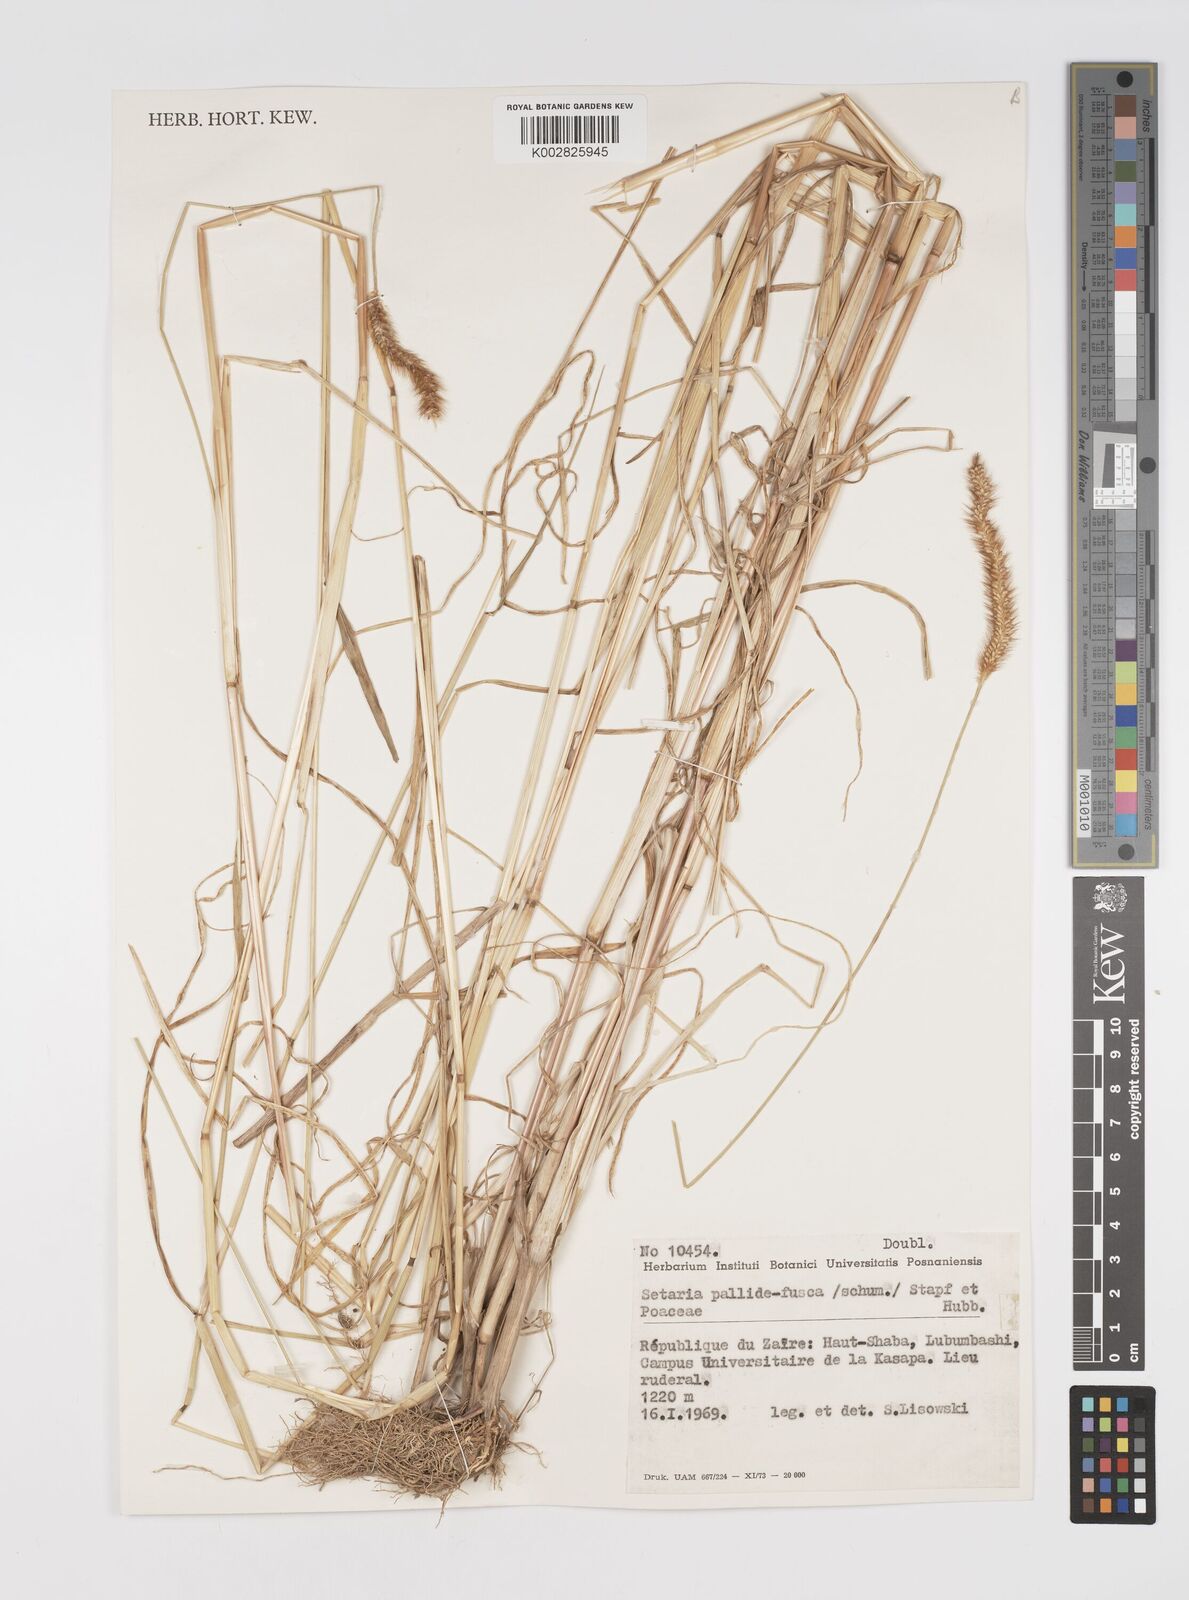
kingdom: Plantae
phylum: Tracheophyta
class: Liliopsida
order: Poales
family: Poaceae
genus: Setaria
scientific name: Setaria pumila
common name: Yellow bristle-grass
